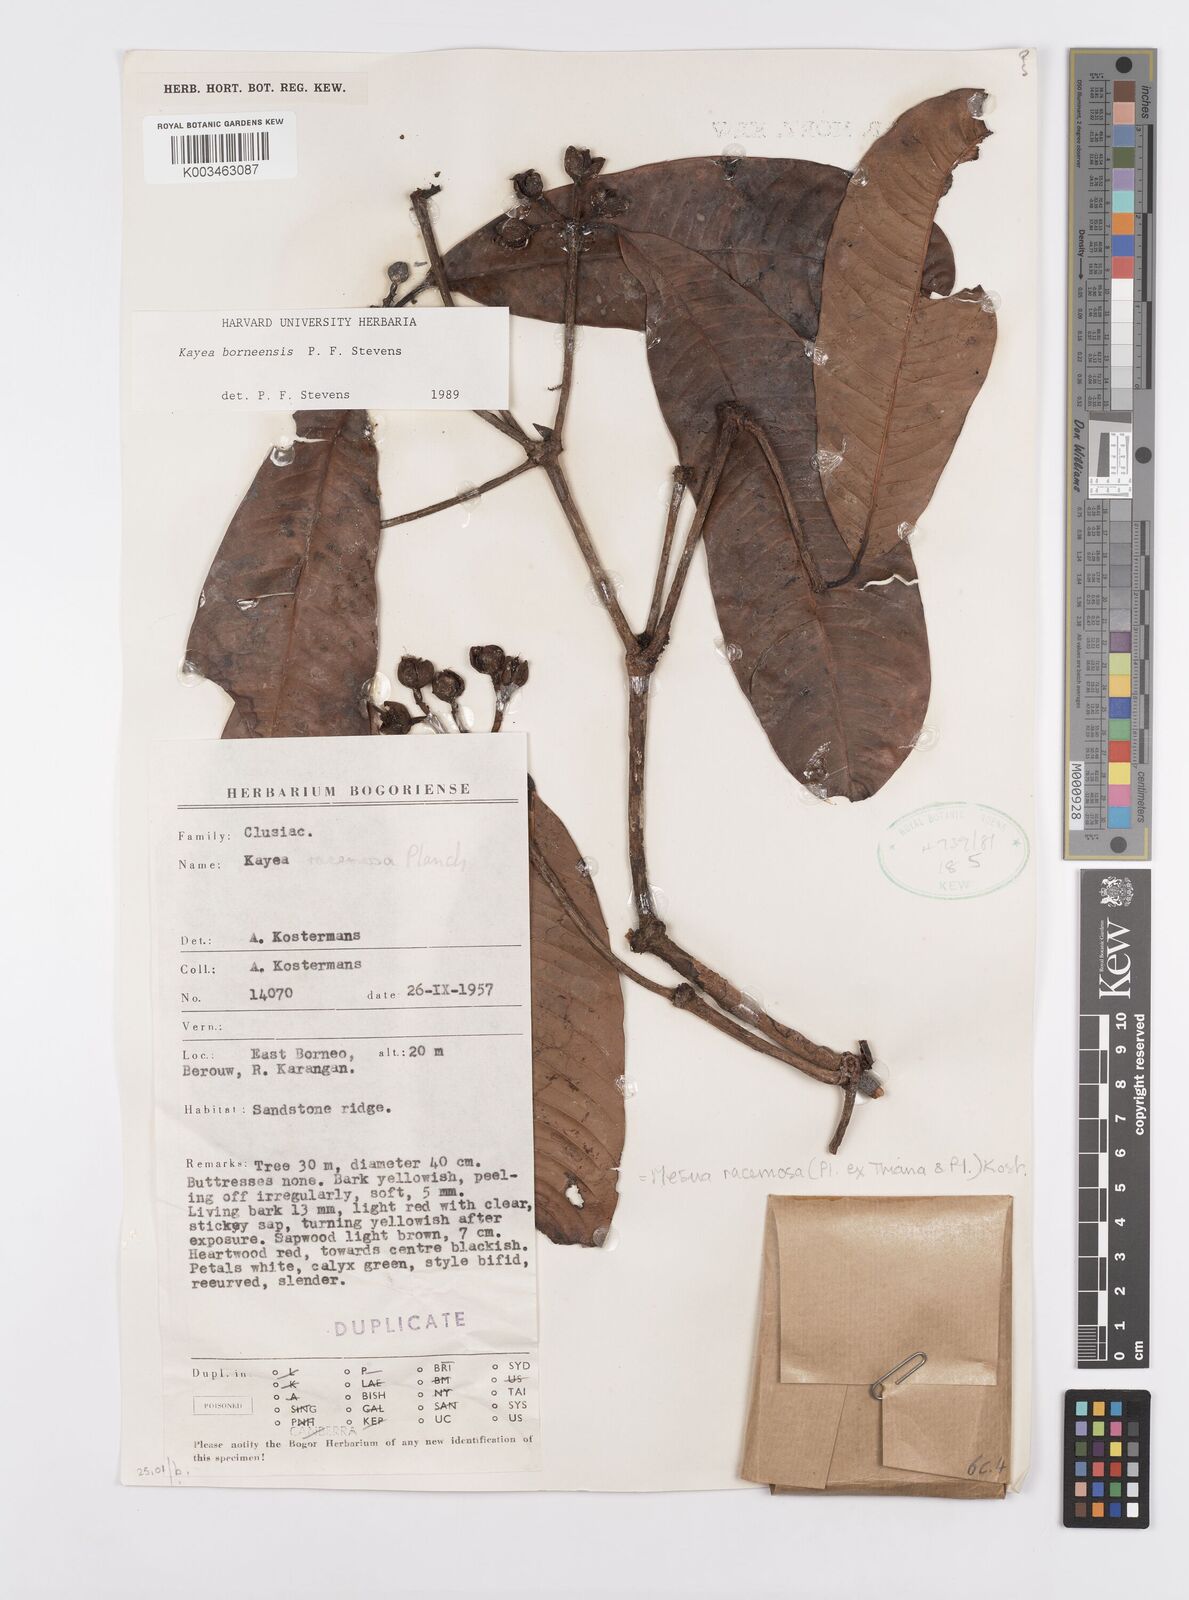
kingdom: Plantae
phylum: Tracheophyta
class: Magnoliopsida
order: Malpighiales
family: Calophyllaceae
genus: Kayea
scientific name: Kayea borneensis
